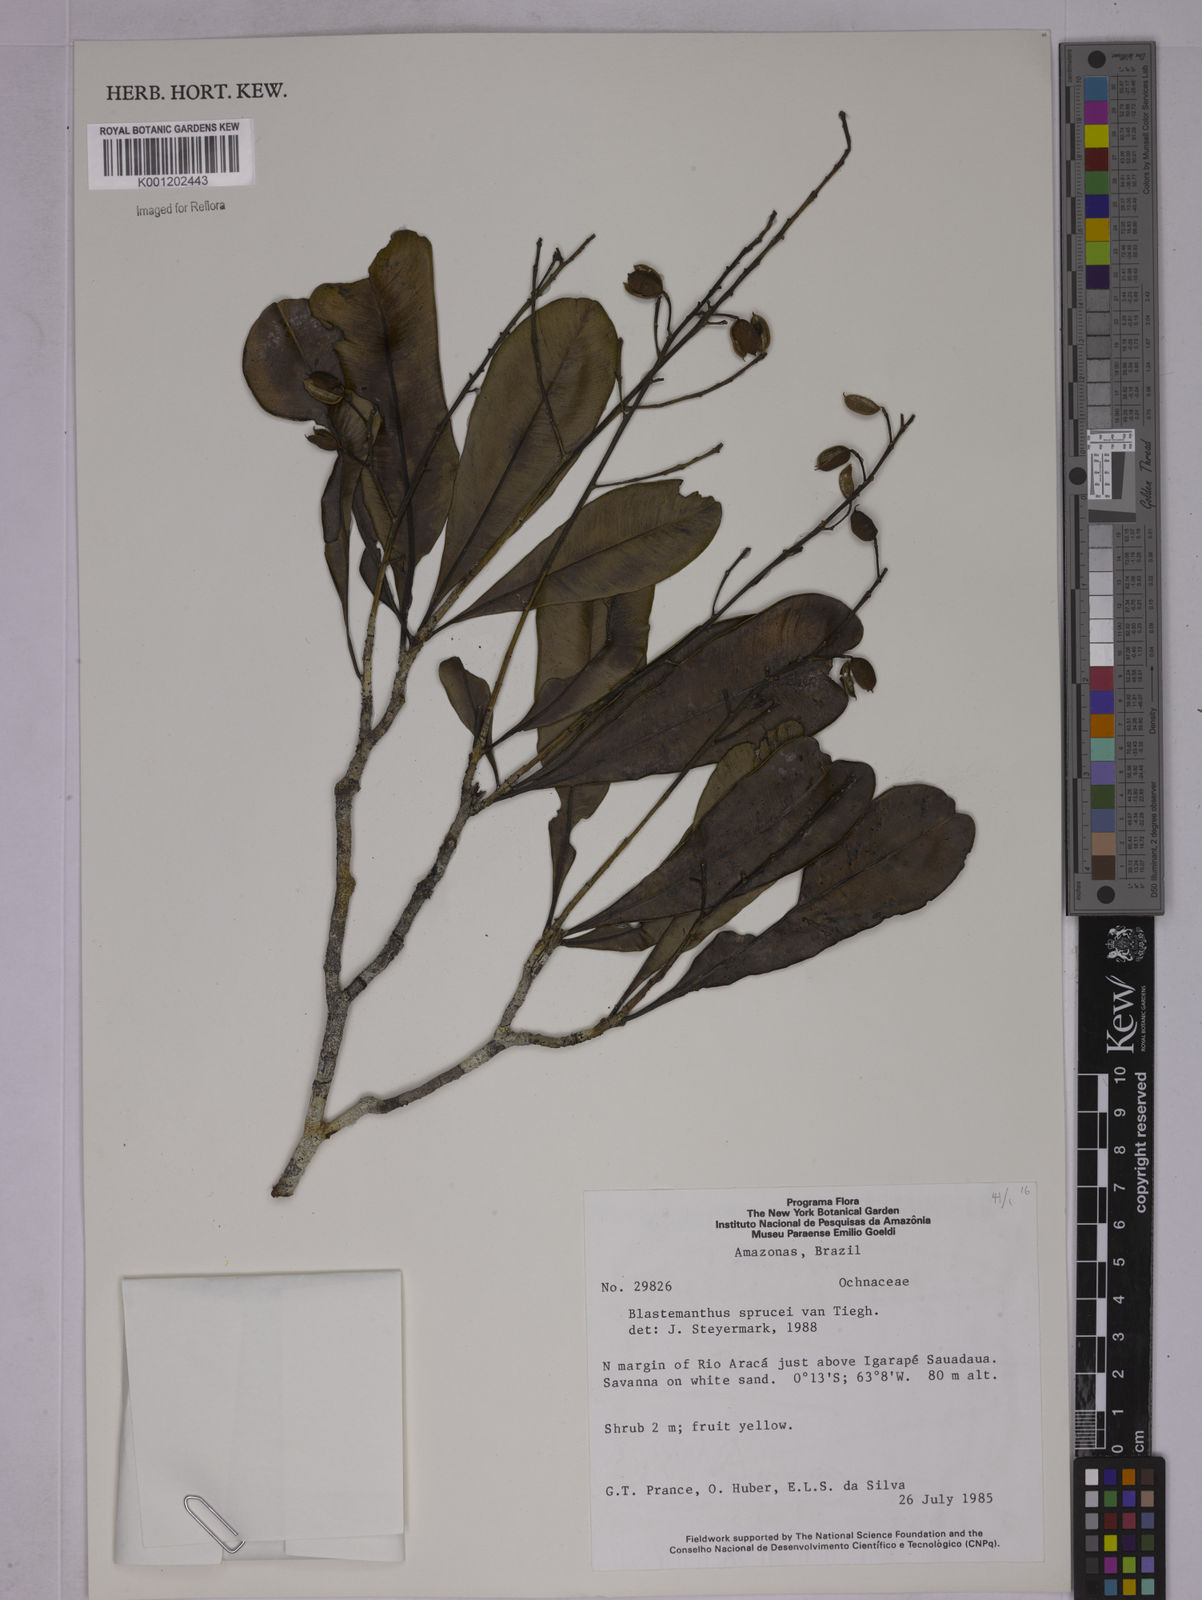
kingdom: Plantae
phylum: Tracheophyta
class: Magnoliopsida
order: Malpighiales
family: Ochnaceae
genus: Blastemanthus
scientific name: Blastemanthus gemmiflorus
